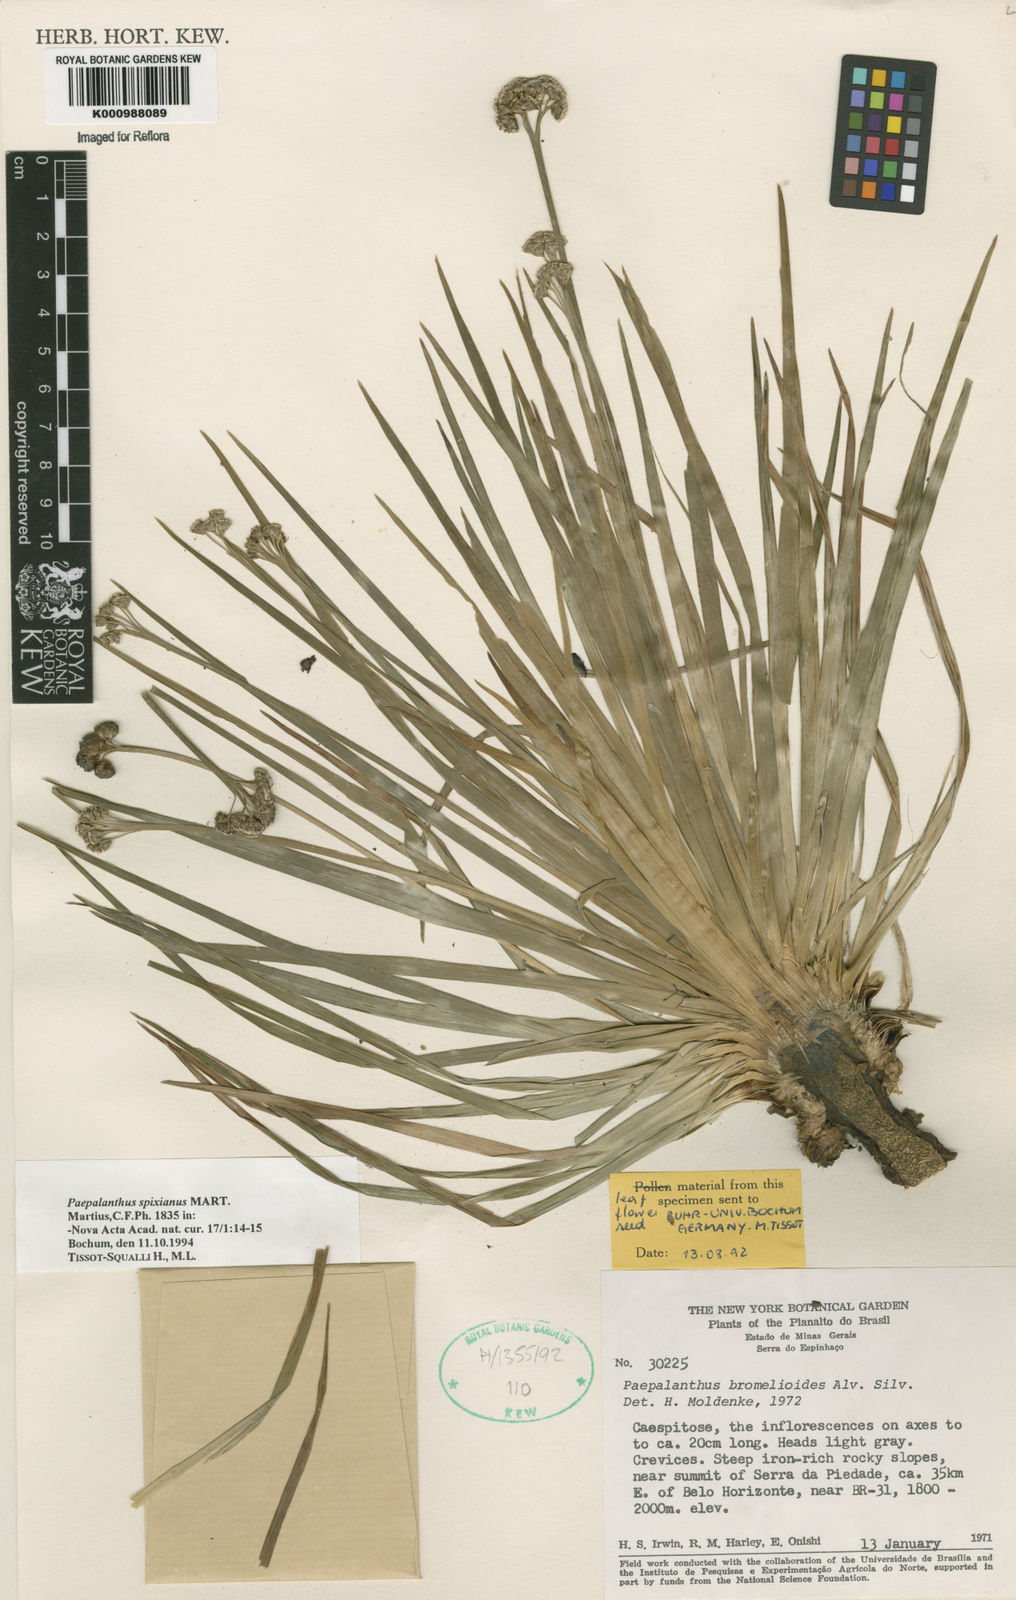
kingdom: Plantae
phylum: Tracheophyta
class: Liliopsida
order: Poales
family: Eriocaulaceae
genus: Paepalanthus
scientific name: Paepalanthus spixianus
